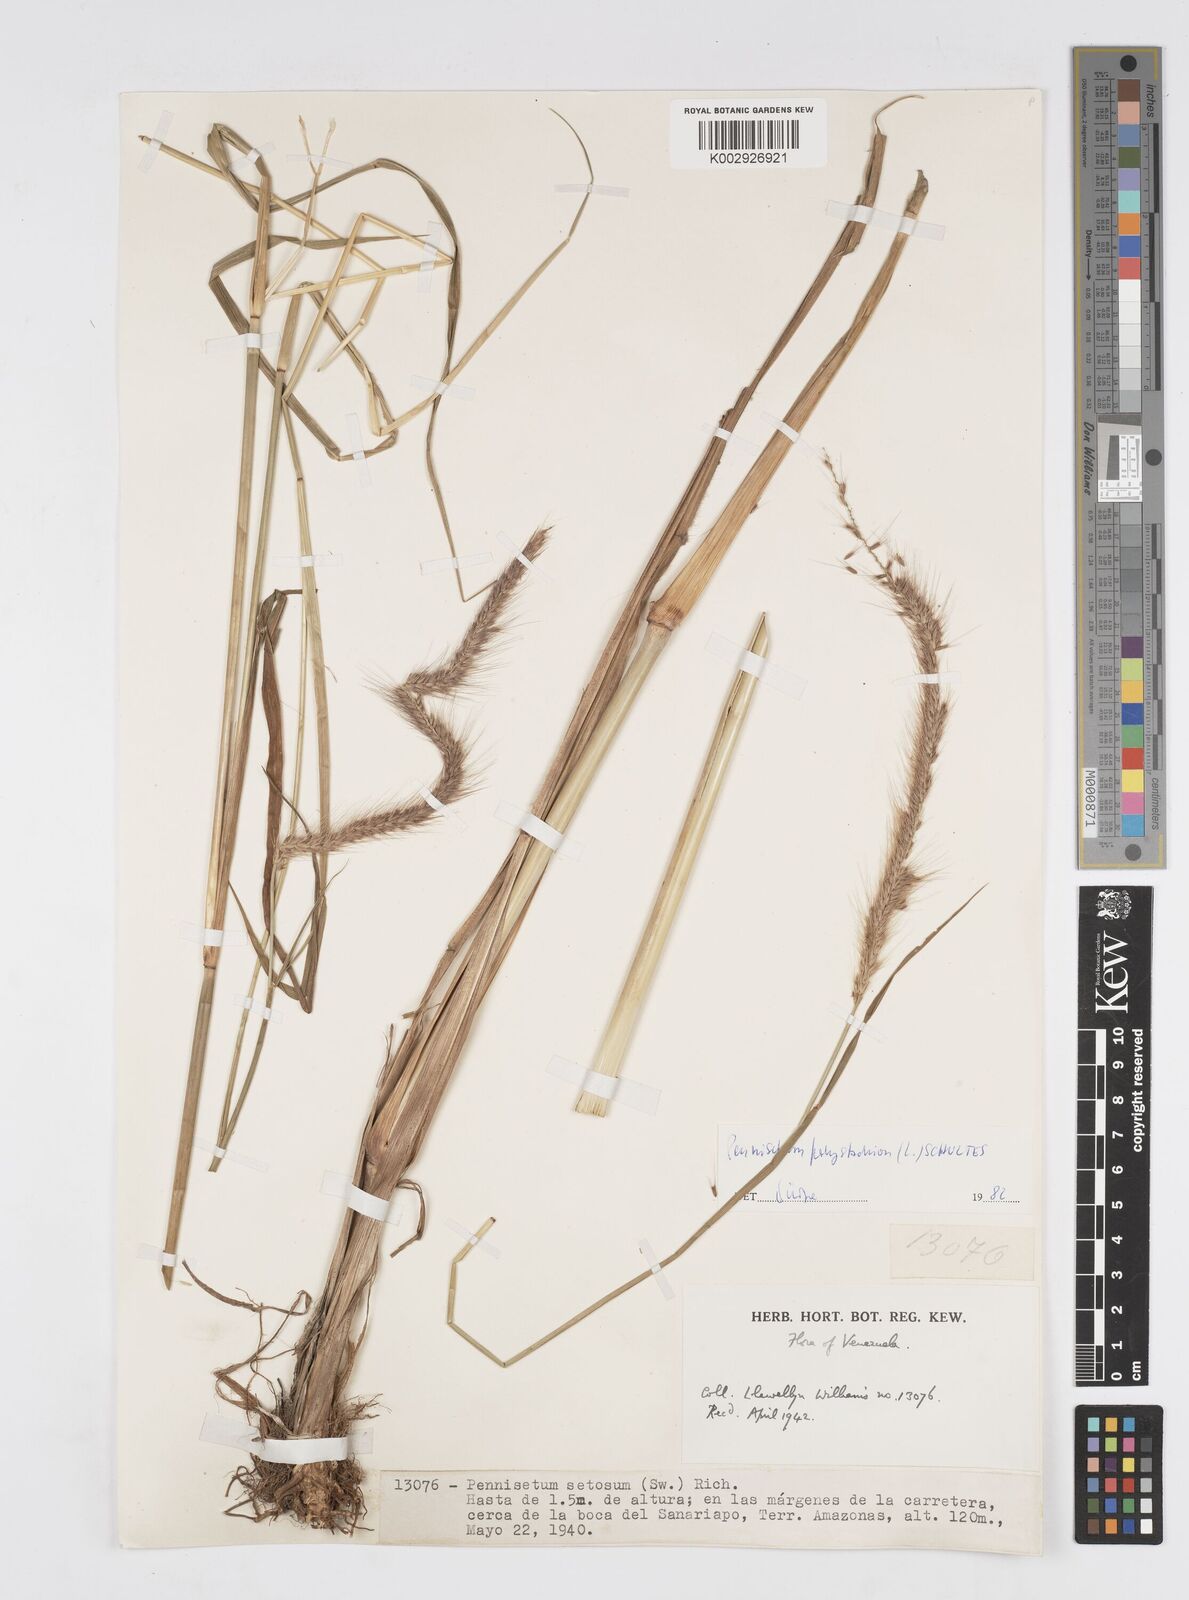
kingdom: Plantae
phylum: Tracheophyta
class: Liliopsida
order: Poales
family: Poaceae
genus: Setaria
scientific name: Setaria parviflora
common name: Knotroot bristle-grass
